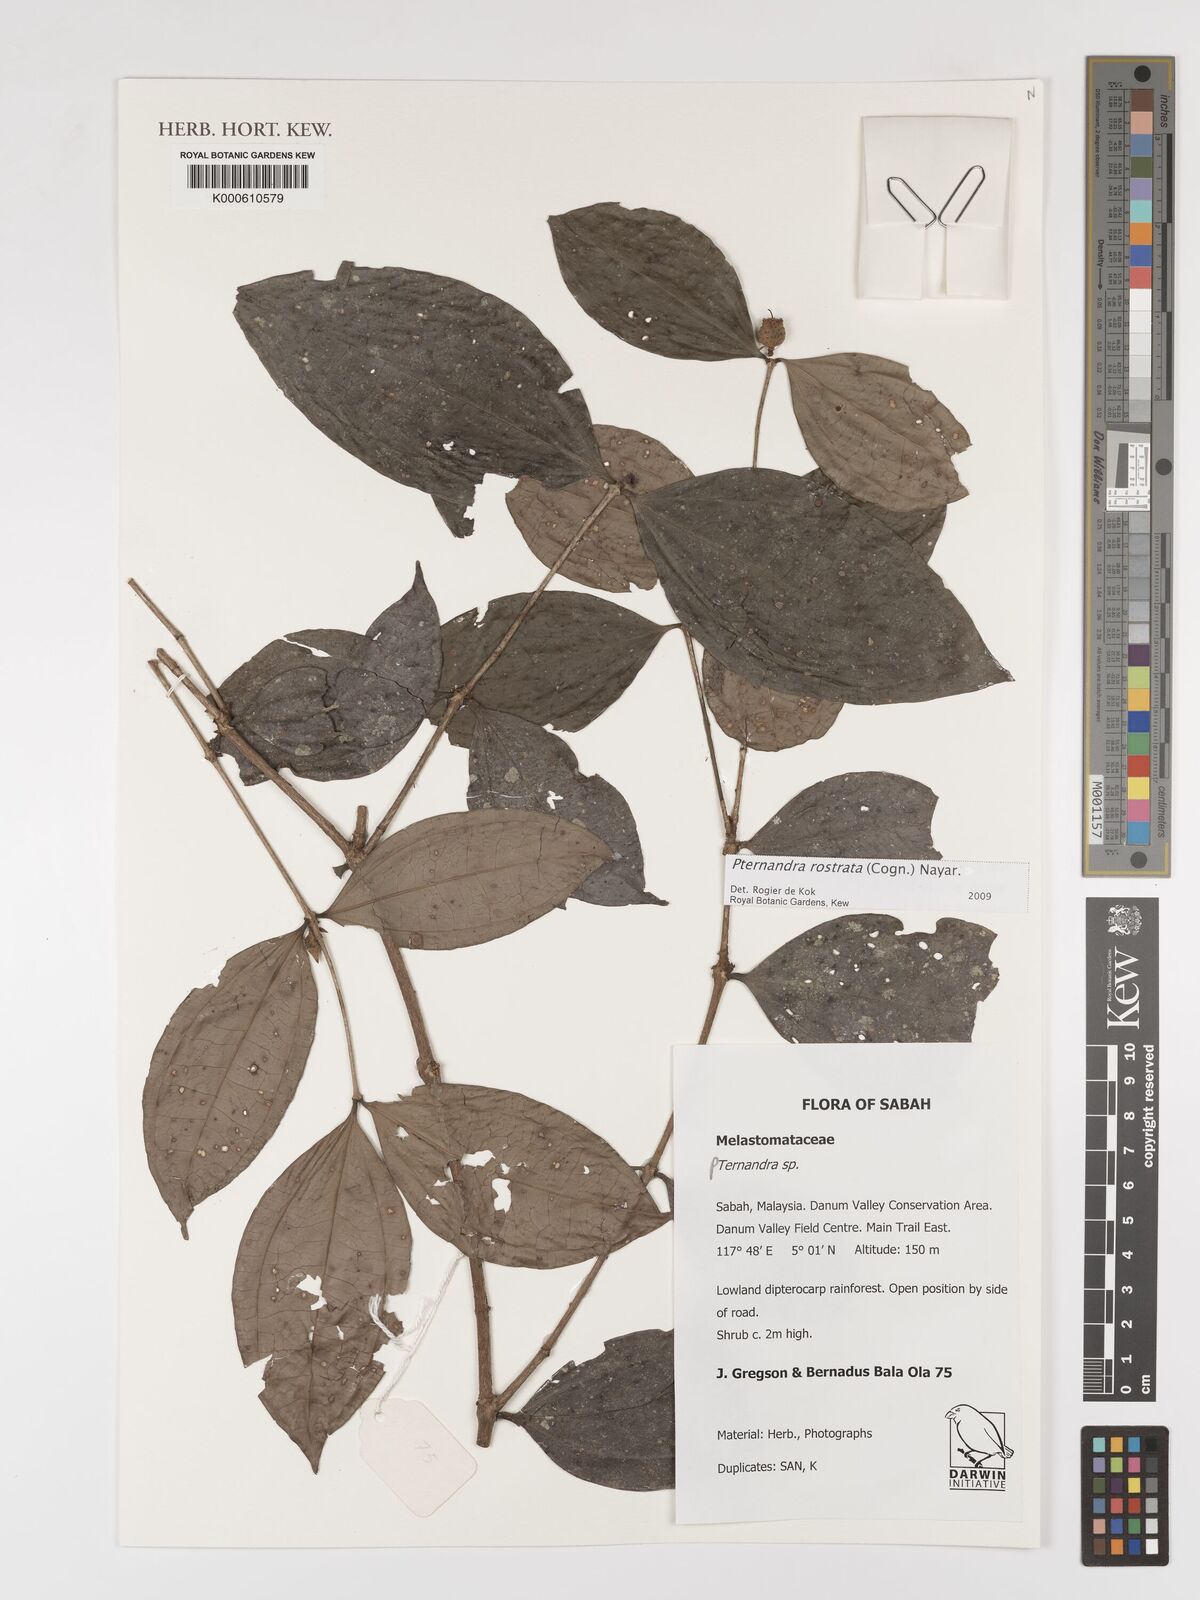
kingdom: Plantae
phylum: Tracheophyta
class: Magnoliopsida
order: Myrtales
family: Melastomataceae
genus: Pternandra
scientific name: Pternandra rostrata
